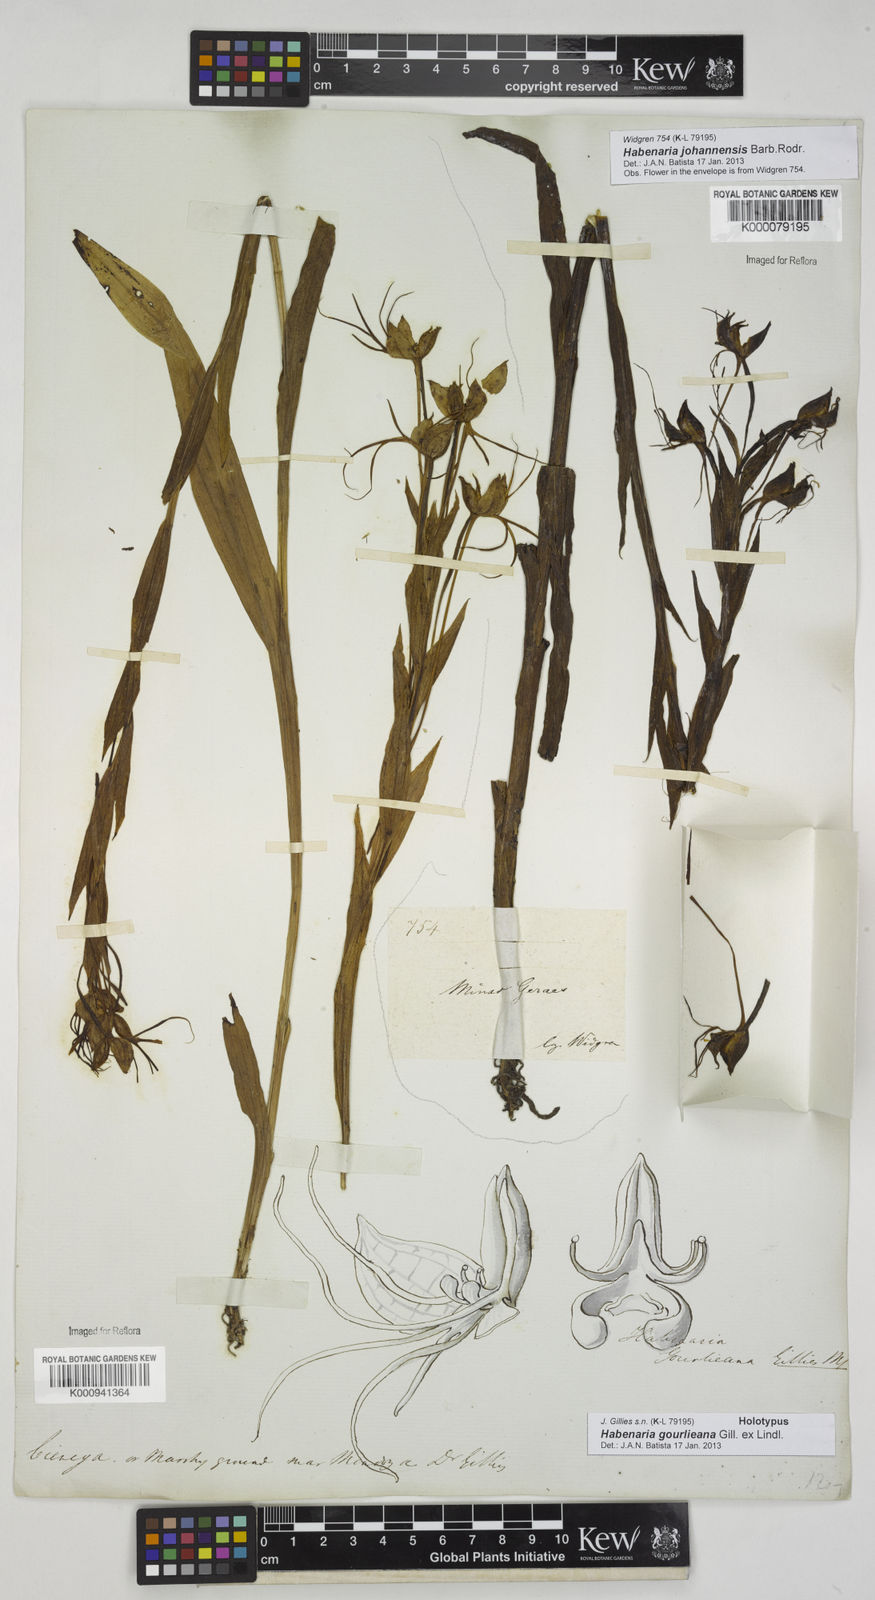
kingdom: Plantae
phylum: Tracheophyta
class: Liliopsida
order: Asparagales
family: Orchidaceae
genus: Habenaria
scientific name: Habenaria gourlieana
